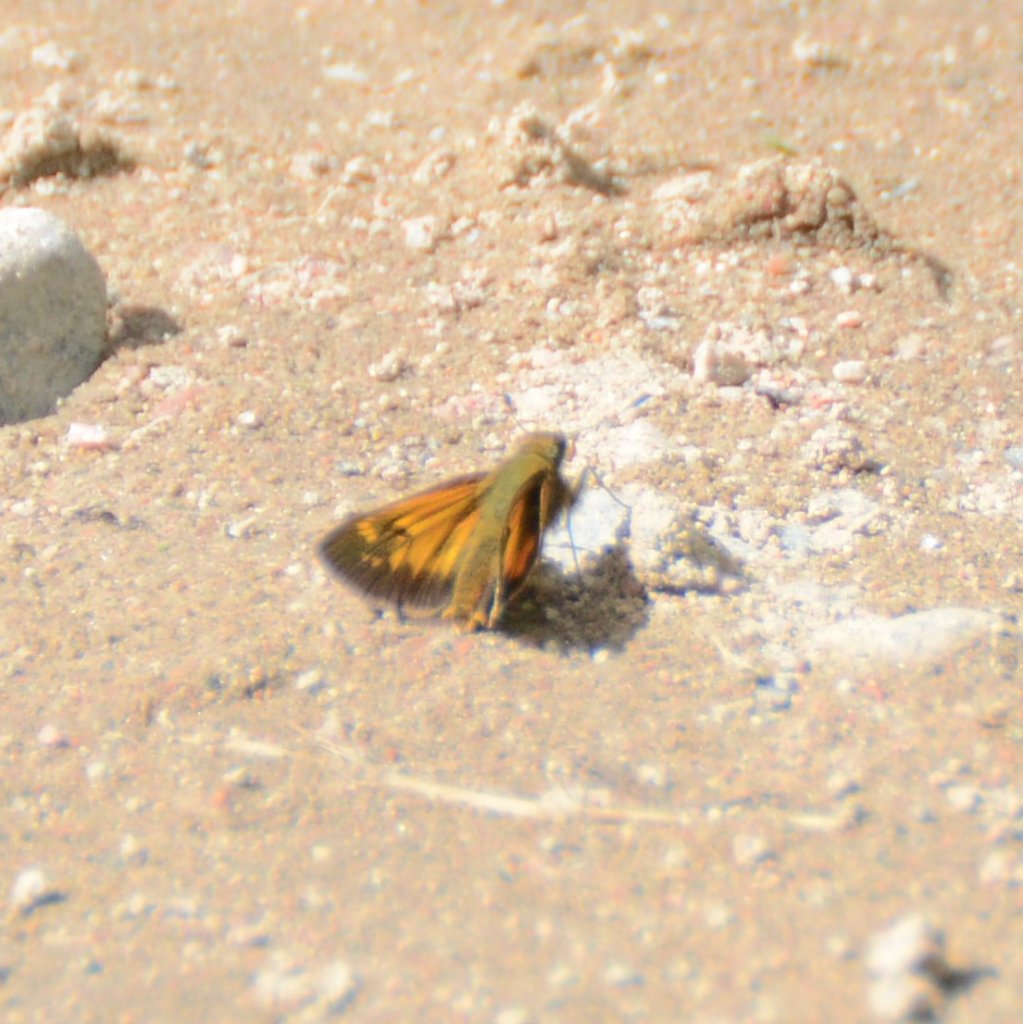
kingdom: Animalia
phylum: Arthropoda
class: Insecta
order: Lepidoptera
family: Hesperiidae
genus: Lon
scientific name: Lon hobomok
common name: Hobomok Skipper
